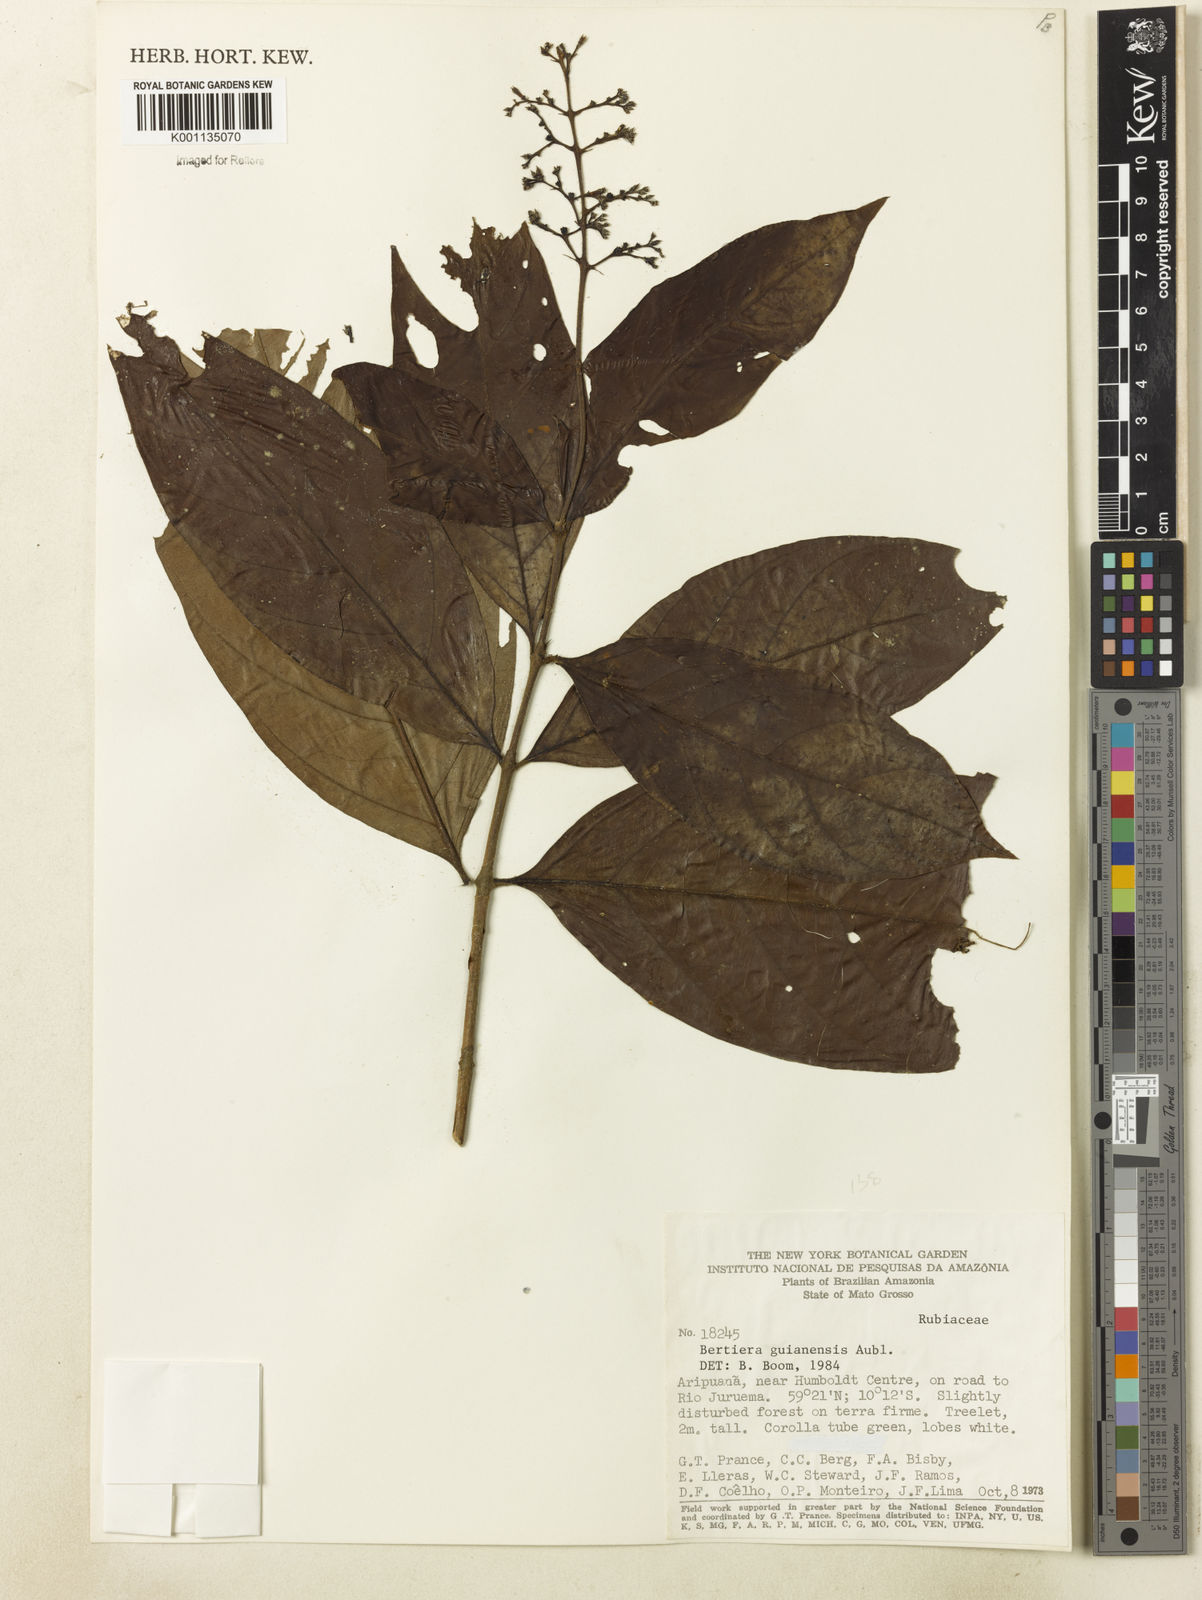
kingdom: Plantae
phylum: Tracheophyta
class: Magnoliopsida
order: Gentianales
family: Rubiaceae
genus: Bertiera
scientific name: Bertiera guianensis
